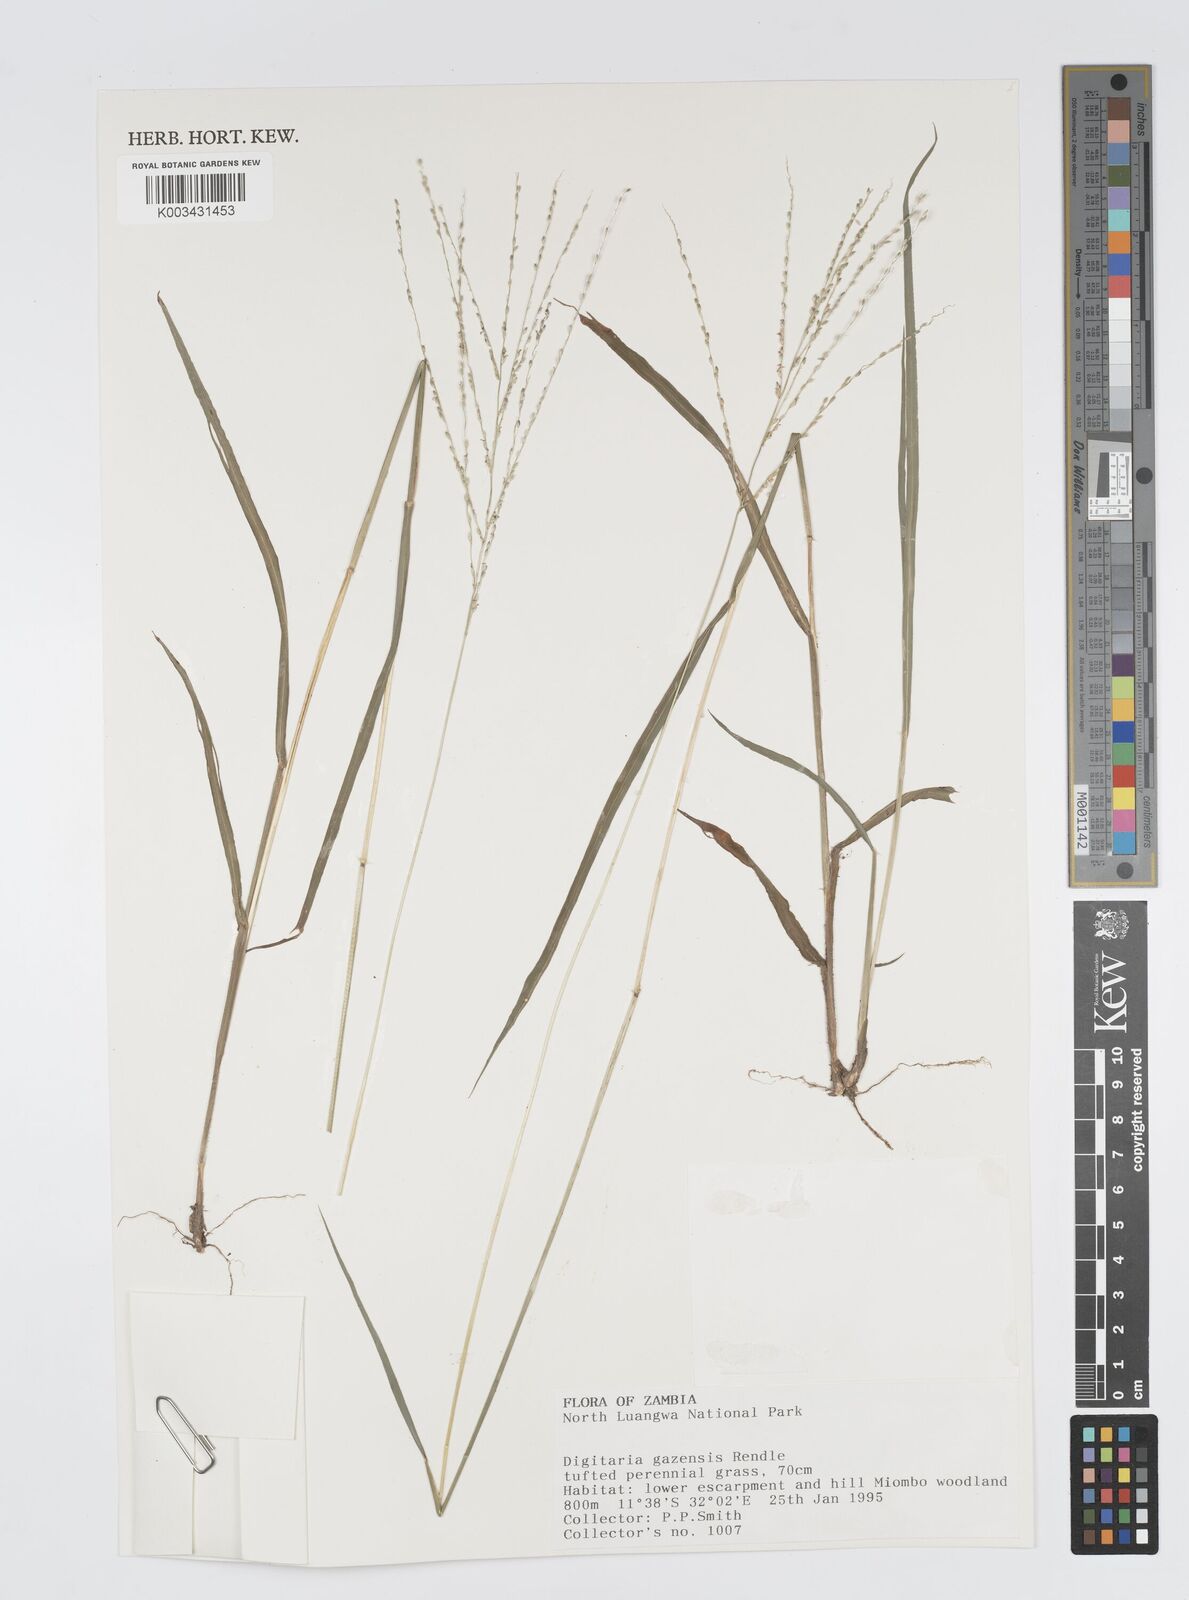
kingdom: Plantae
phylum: Tracheophyta
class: Liliopsida
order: Poales
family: Poaceae
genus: Digitaria
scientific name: Digitaria gazensis
